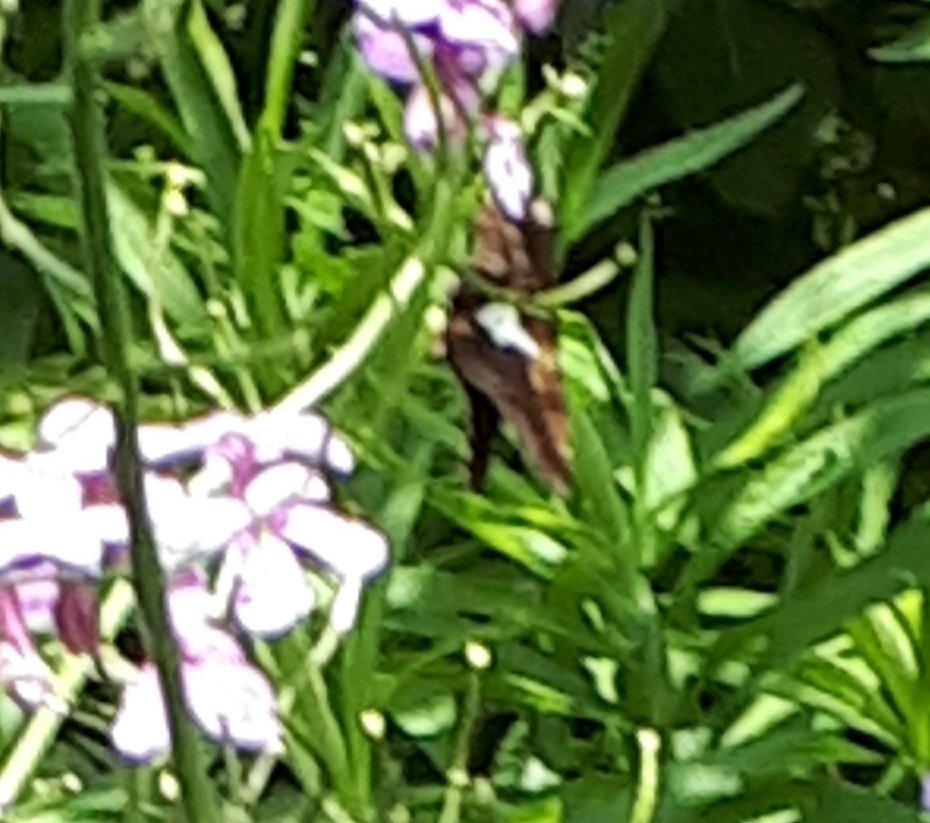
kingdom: Animalia
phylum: Arthropoda
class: Insecta
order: Lepidoptera
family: Hesperiidae
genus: Epargyreus
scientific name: Epargyreus clarus
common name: Silver-spotted Skipper
